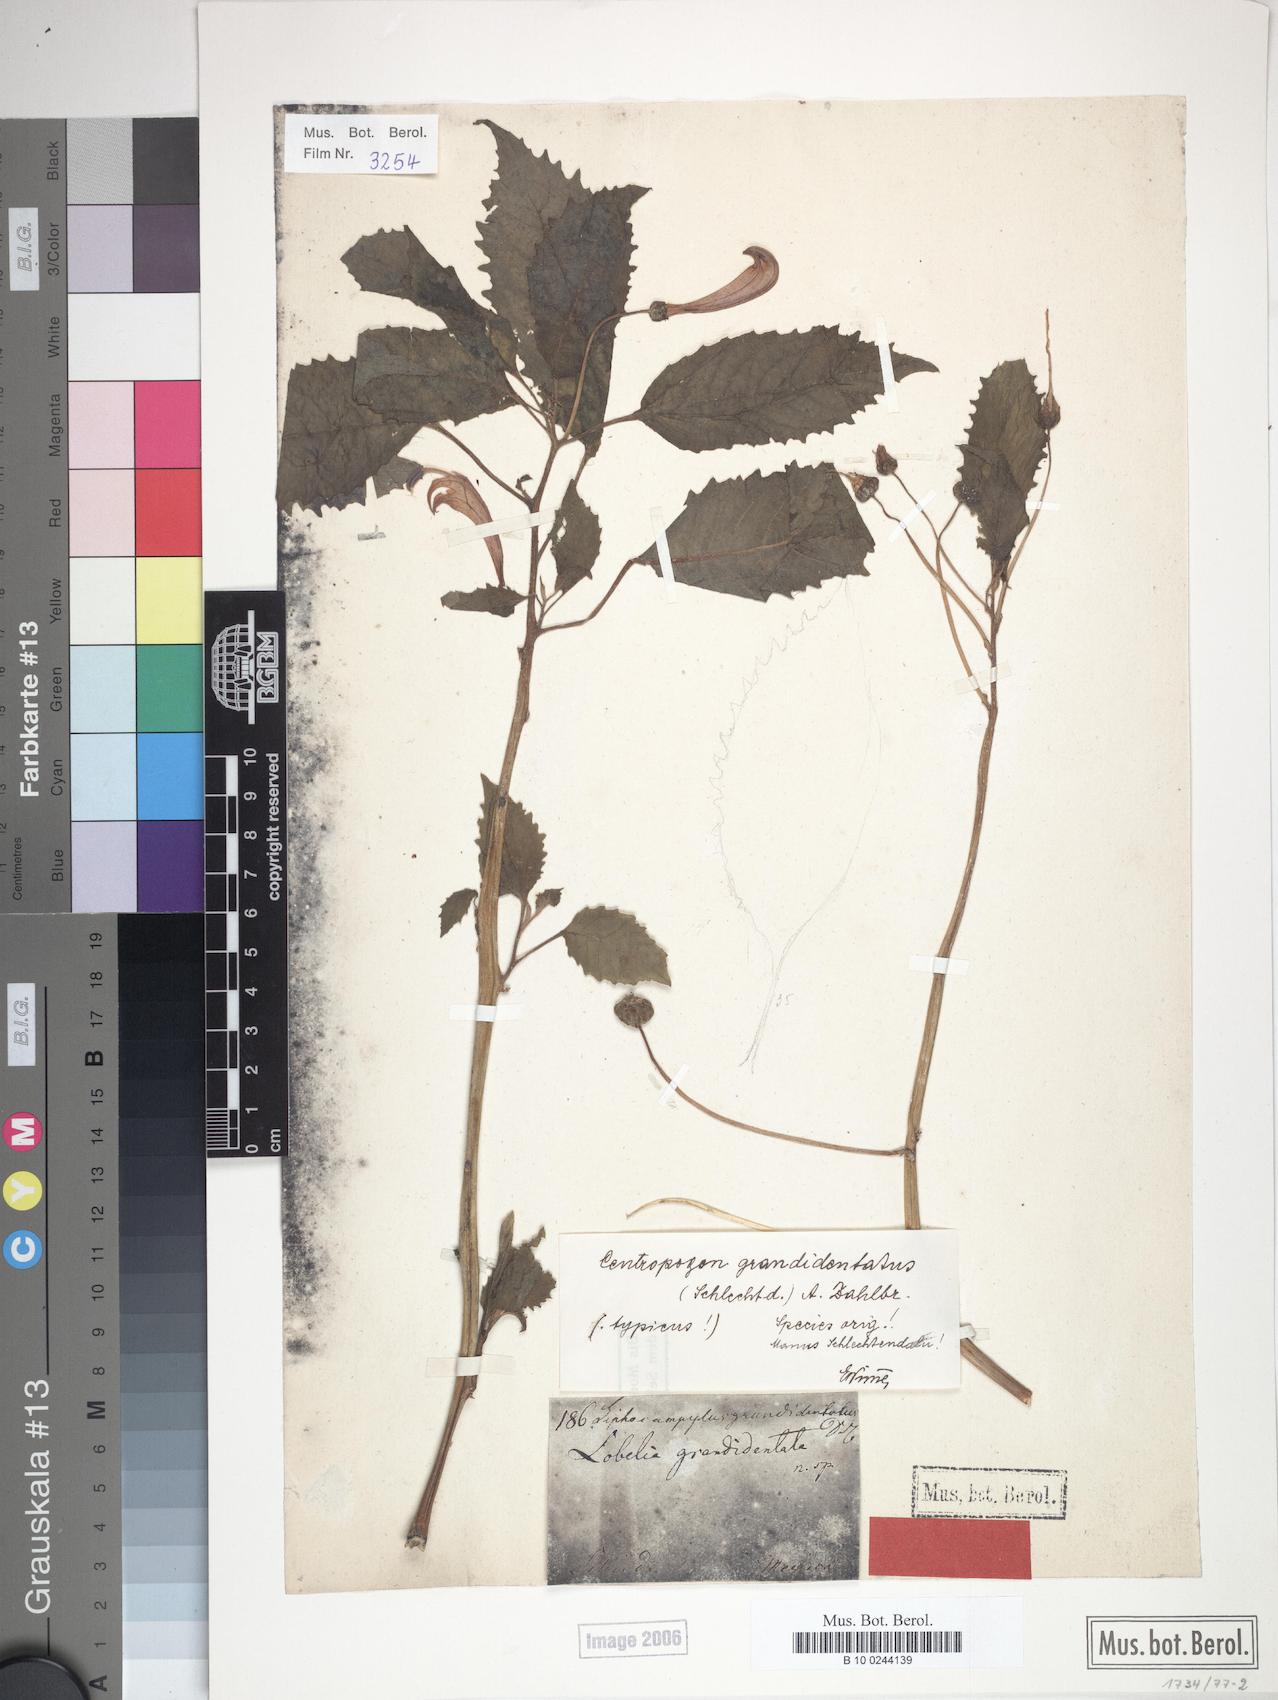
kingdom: Plantae
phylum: Tracheophyta
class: Magnoliopsida
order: Asterales
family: Campanulaceae
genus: Centropogon
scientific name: Centropogon grandidentatus
